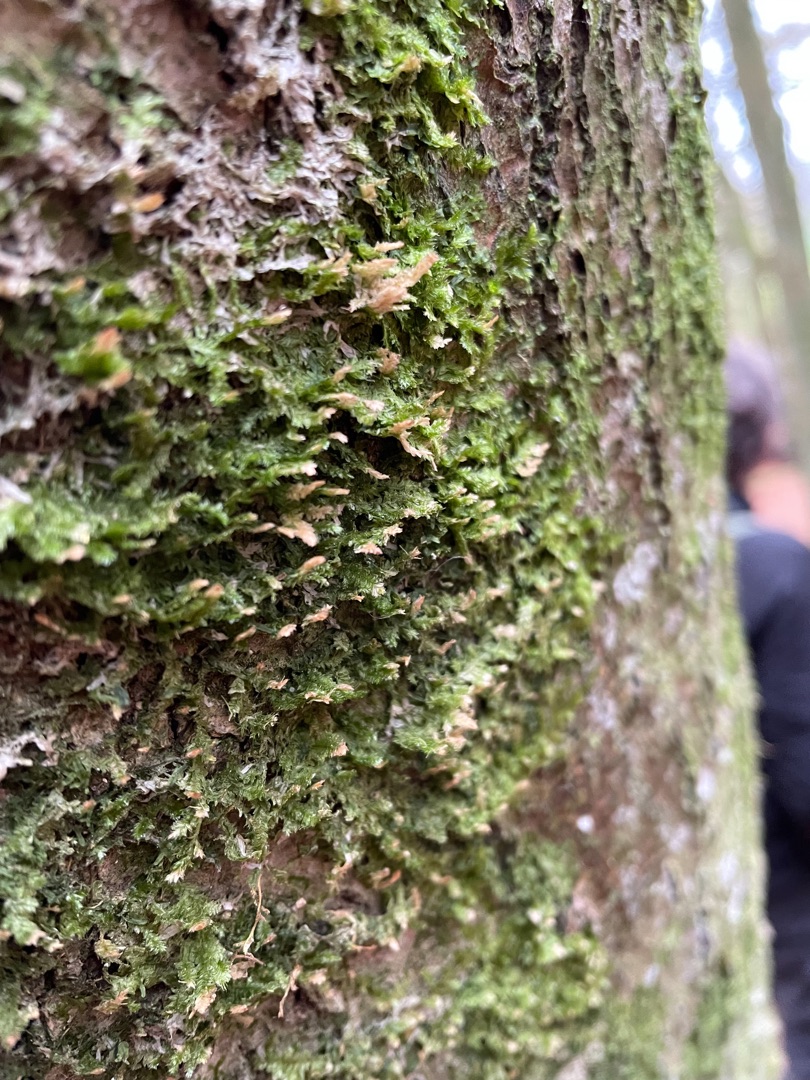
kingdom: Plantae
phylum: Bryophyta
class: Bryopsida
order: Hypnales
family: Neckeraceae
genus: Neckera
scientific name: Neckera pumila
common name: Lav fladmos
